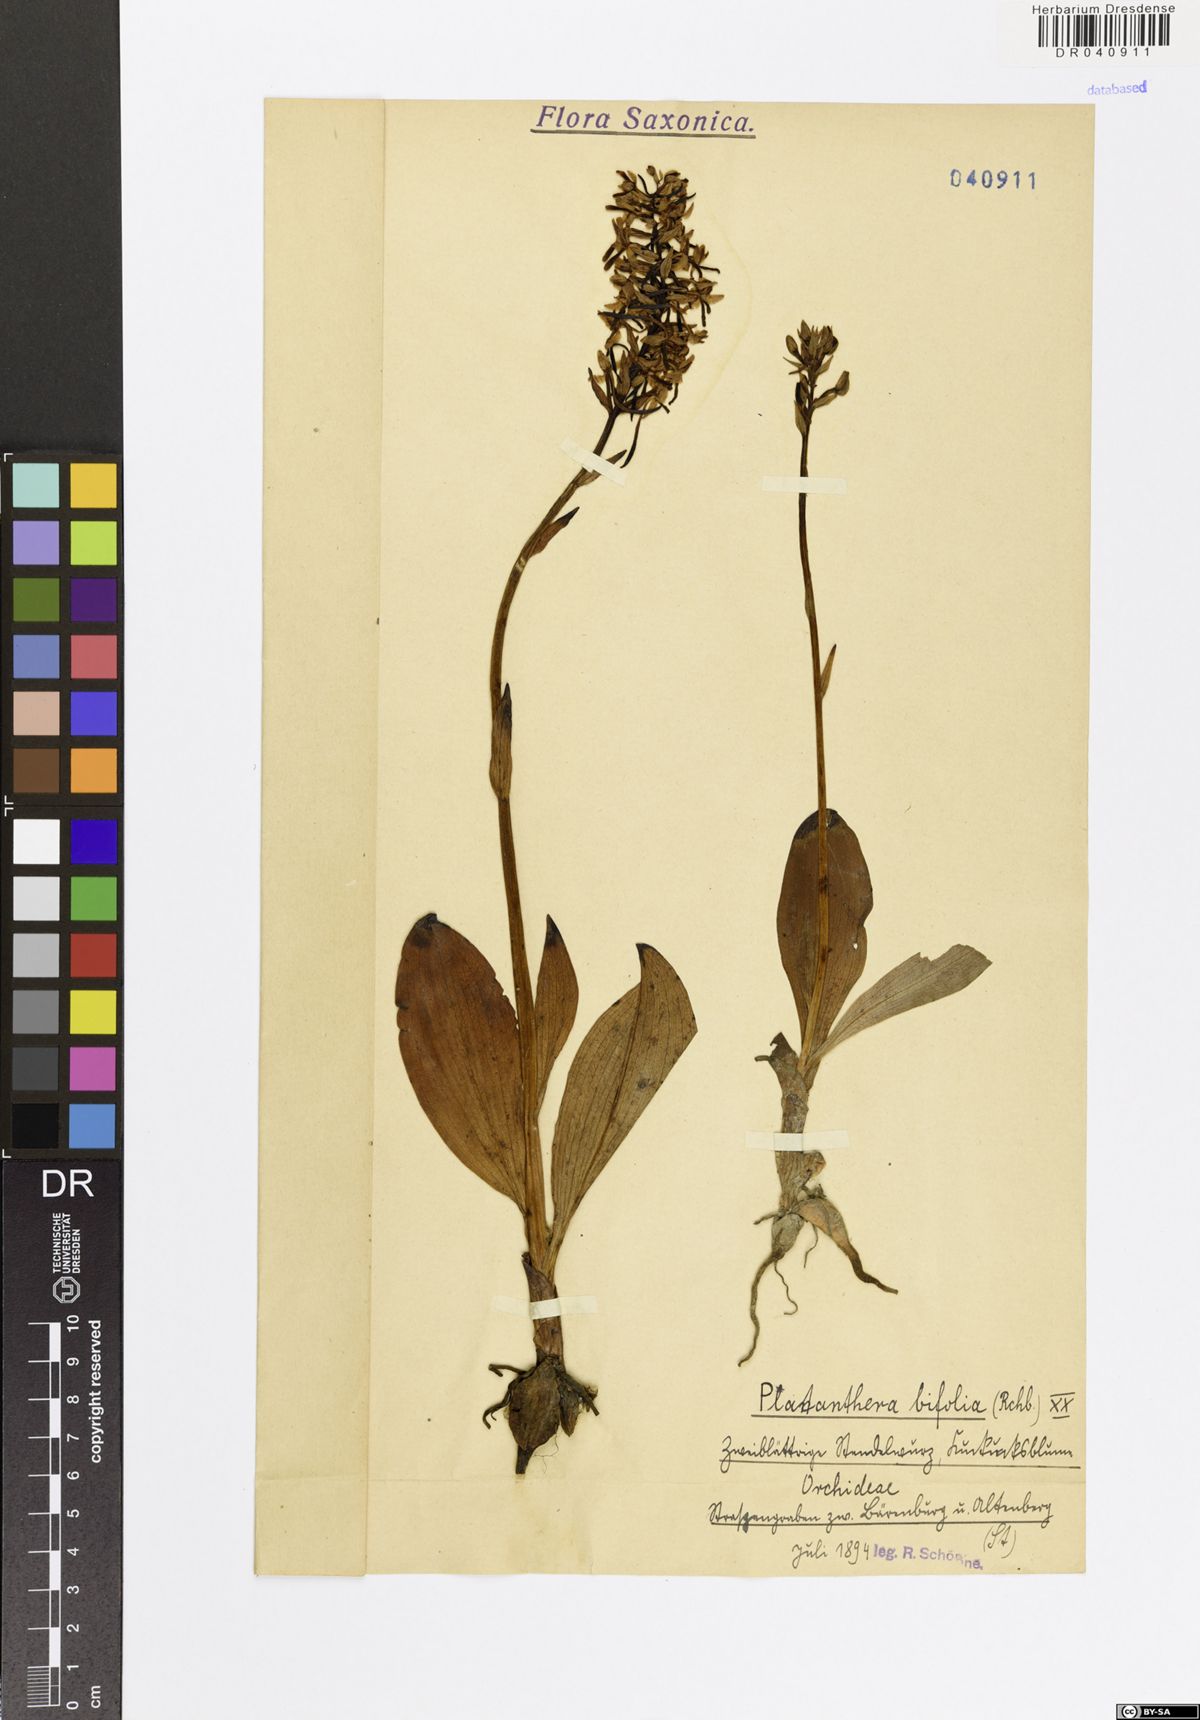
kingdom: Plantae
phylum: Tracheophyta
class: Liliopsida
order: Asparagales
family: Orchidaceae
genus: Platanthera
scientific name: Platanthera bifolia
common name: Lesser butterfly-orchid
